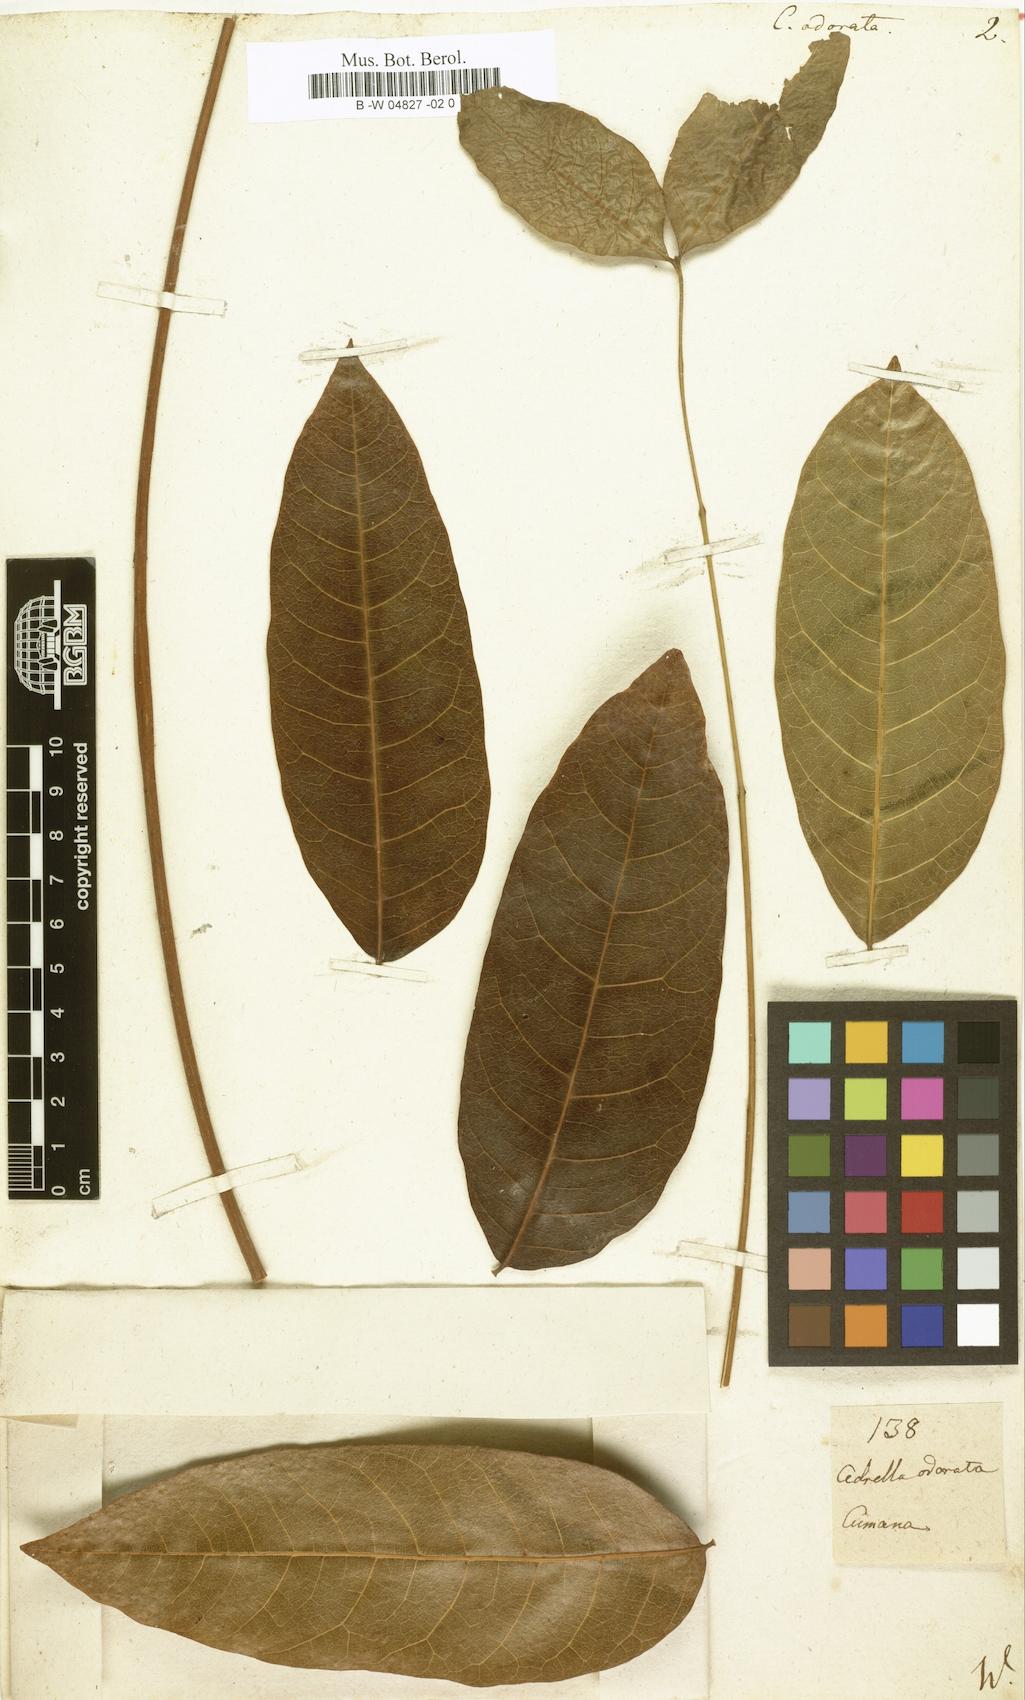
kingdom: Plantae
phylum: Tracheophyta
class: Magnoliopsida
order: Sapindales
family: Meliaceae
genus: Cedrela
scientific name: Cedrela odorata
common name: Red cedar
